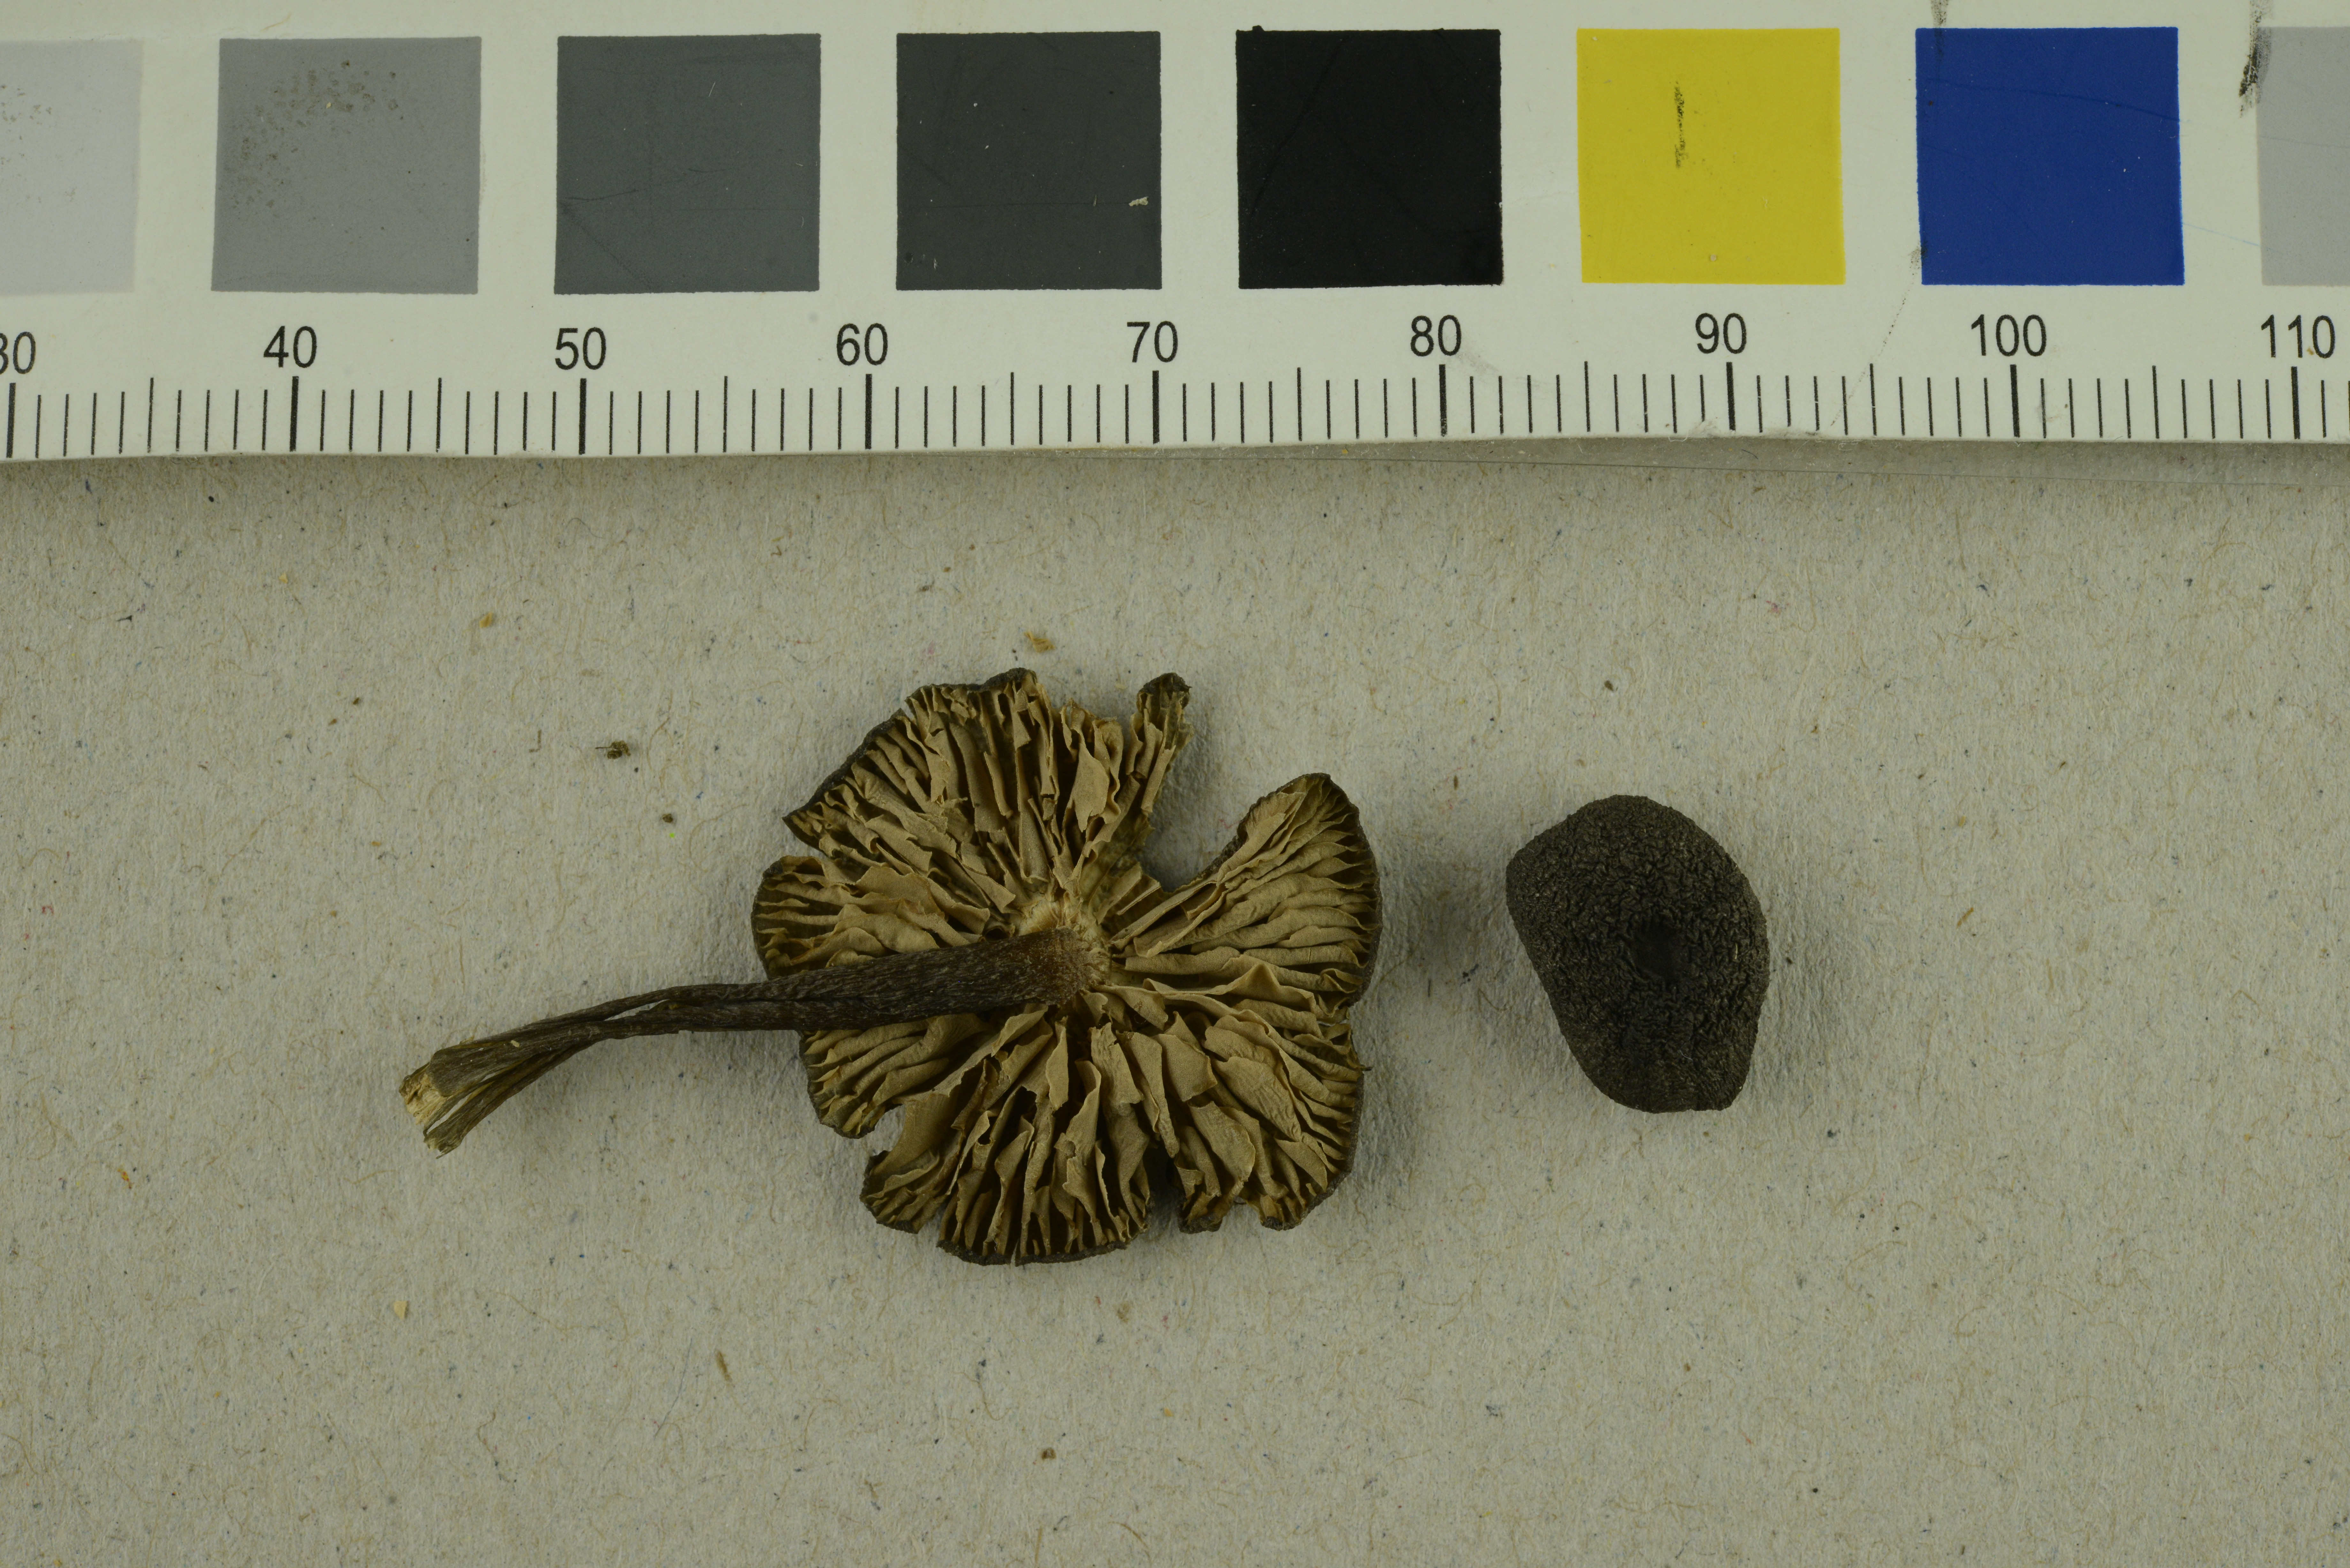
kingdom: Fungi
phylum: Basidiomycota
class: Agaricomycetes
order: Agaricales
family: Entolomataceae
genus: Entoloma
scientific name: Entoloma atrocoeruleum
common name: Navy pinkgill
